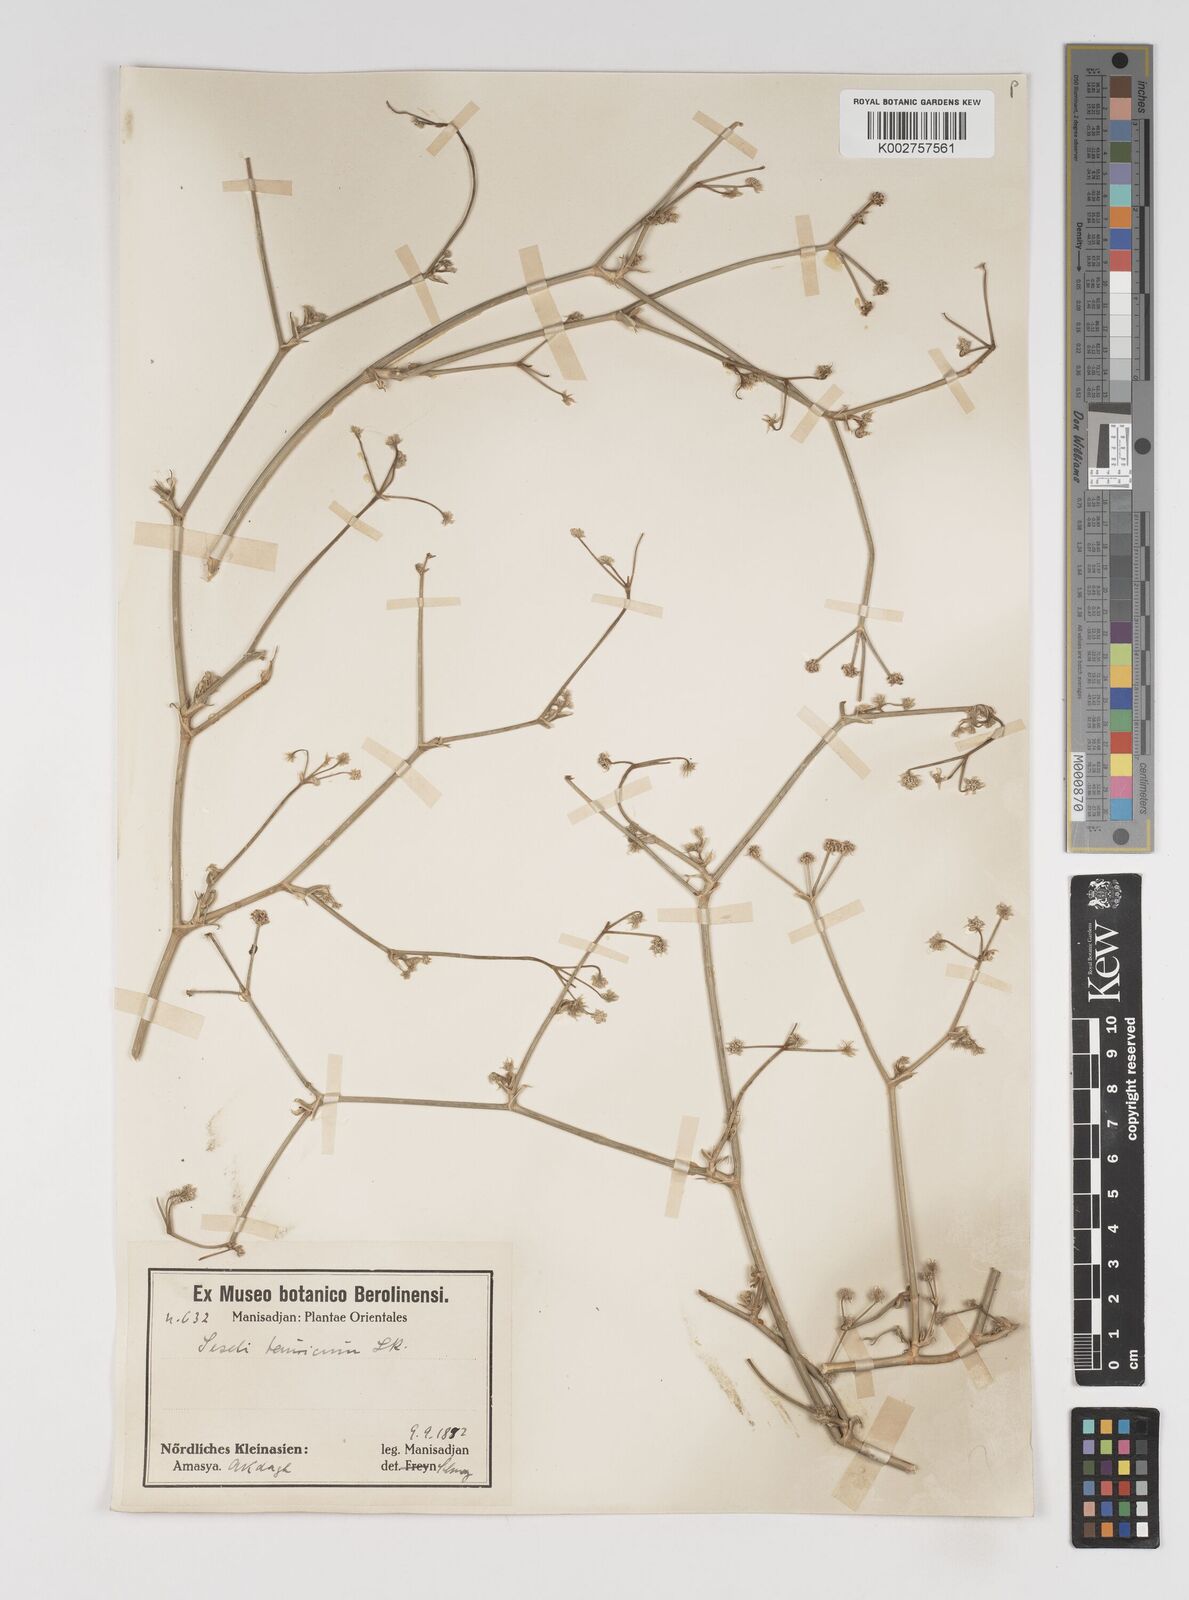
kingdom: Plantae
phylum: Tracheophyta
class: Magnoliopsida
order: Apiales
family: Apiaceae
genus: Seseli
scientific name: Seseli tortuosum
